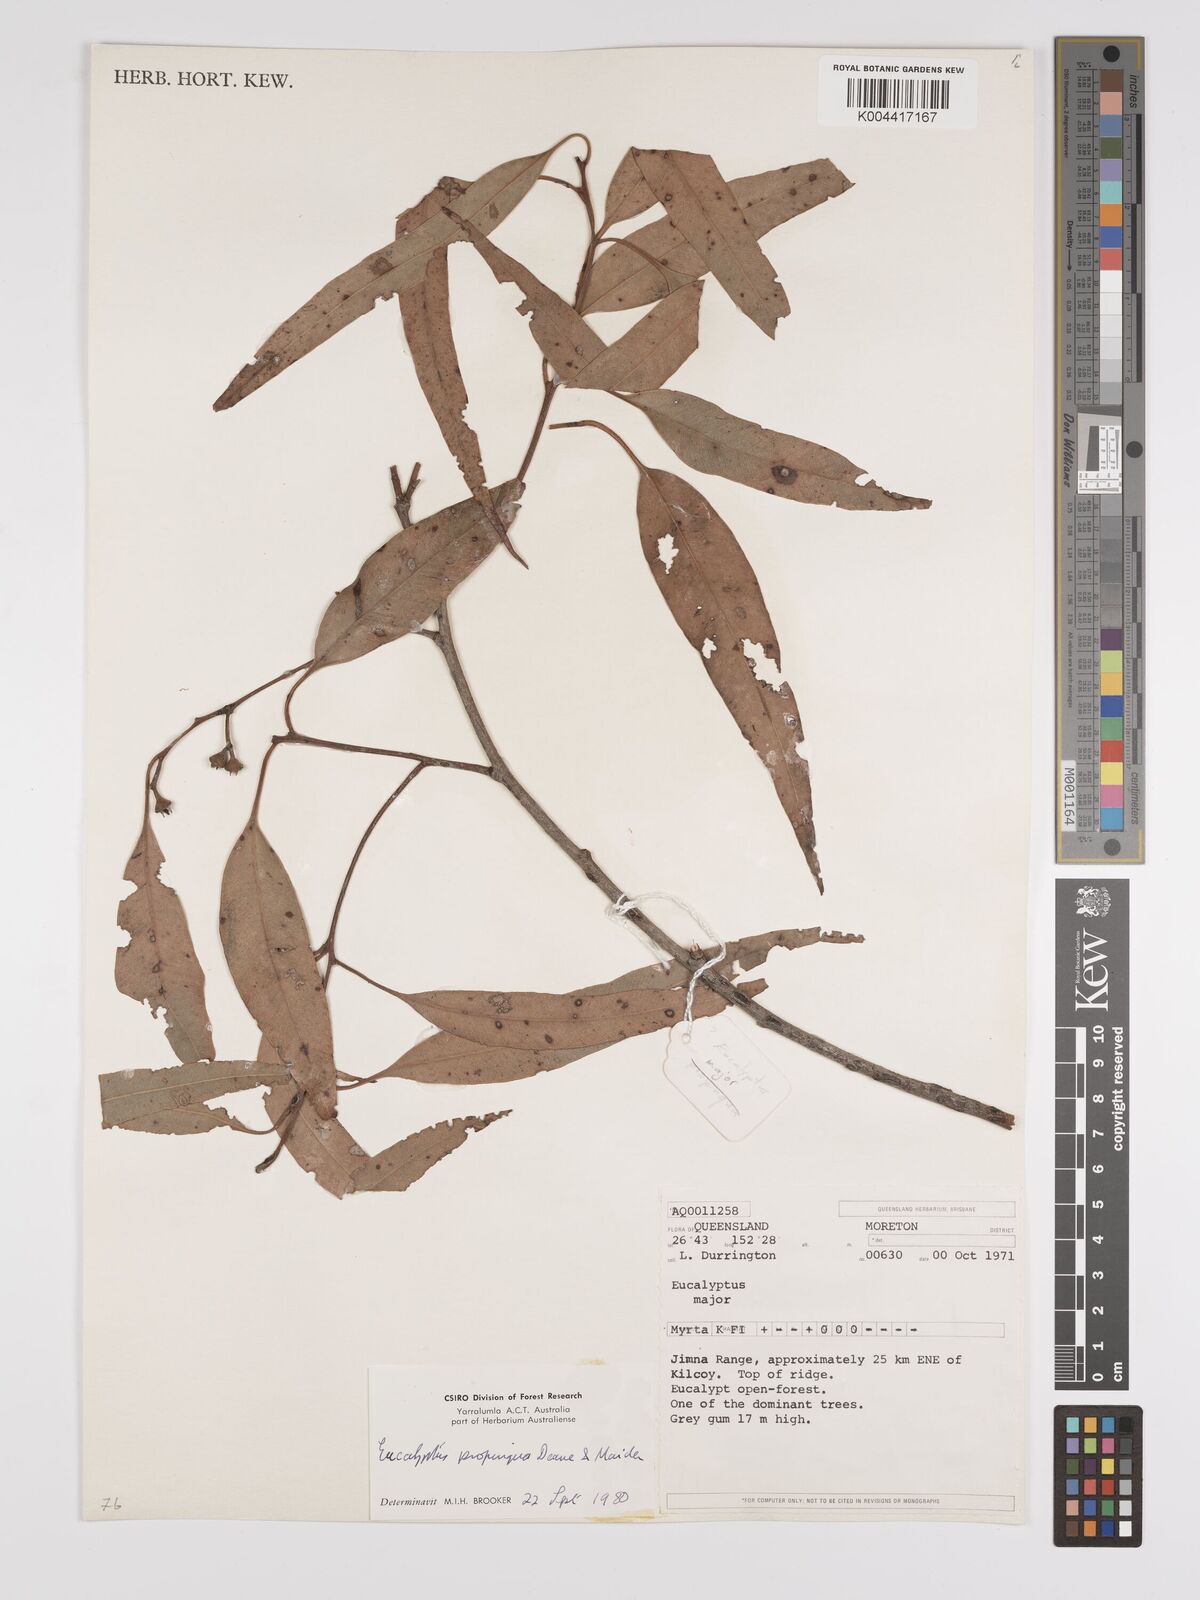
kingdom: Plantae
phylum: Tracheophyta
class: Magnoliopsida
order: Myrtales
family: Myrtaceae
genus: Eucalyptus
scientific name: Eucalyptus
